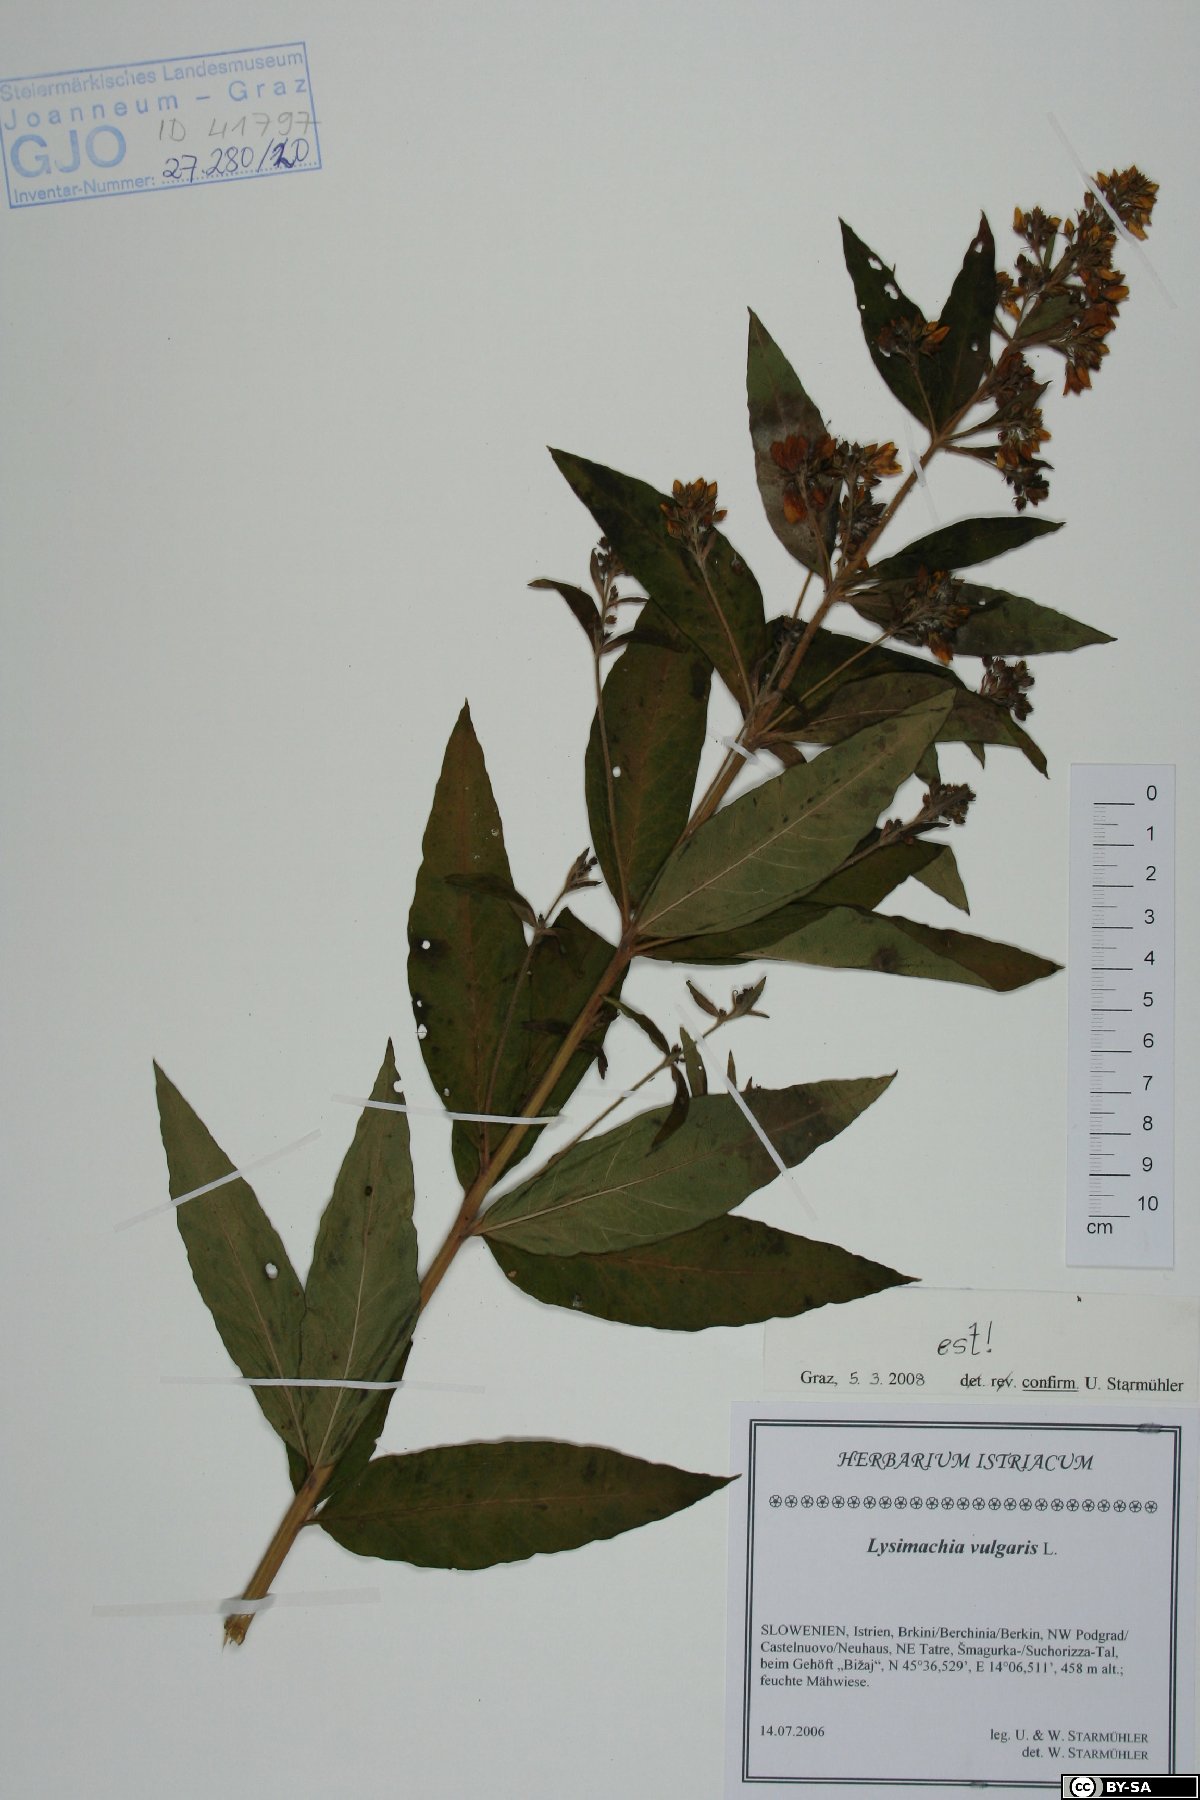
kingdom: Plantae
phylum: Tracheophyta
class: Magnoliopsida
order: Ericales
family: Primulaceae
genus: Lysimachia
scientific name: Lysimachia vulgaris
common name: Yellow loosestrife
